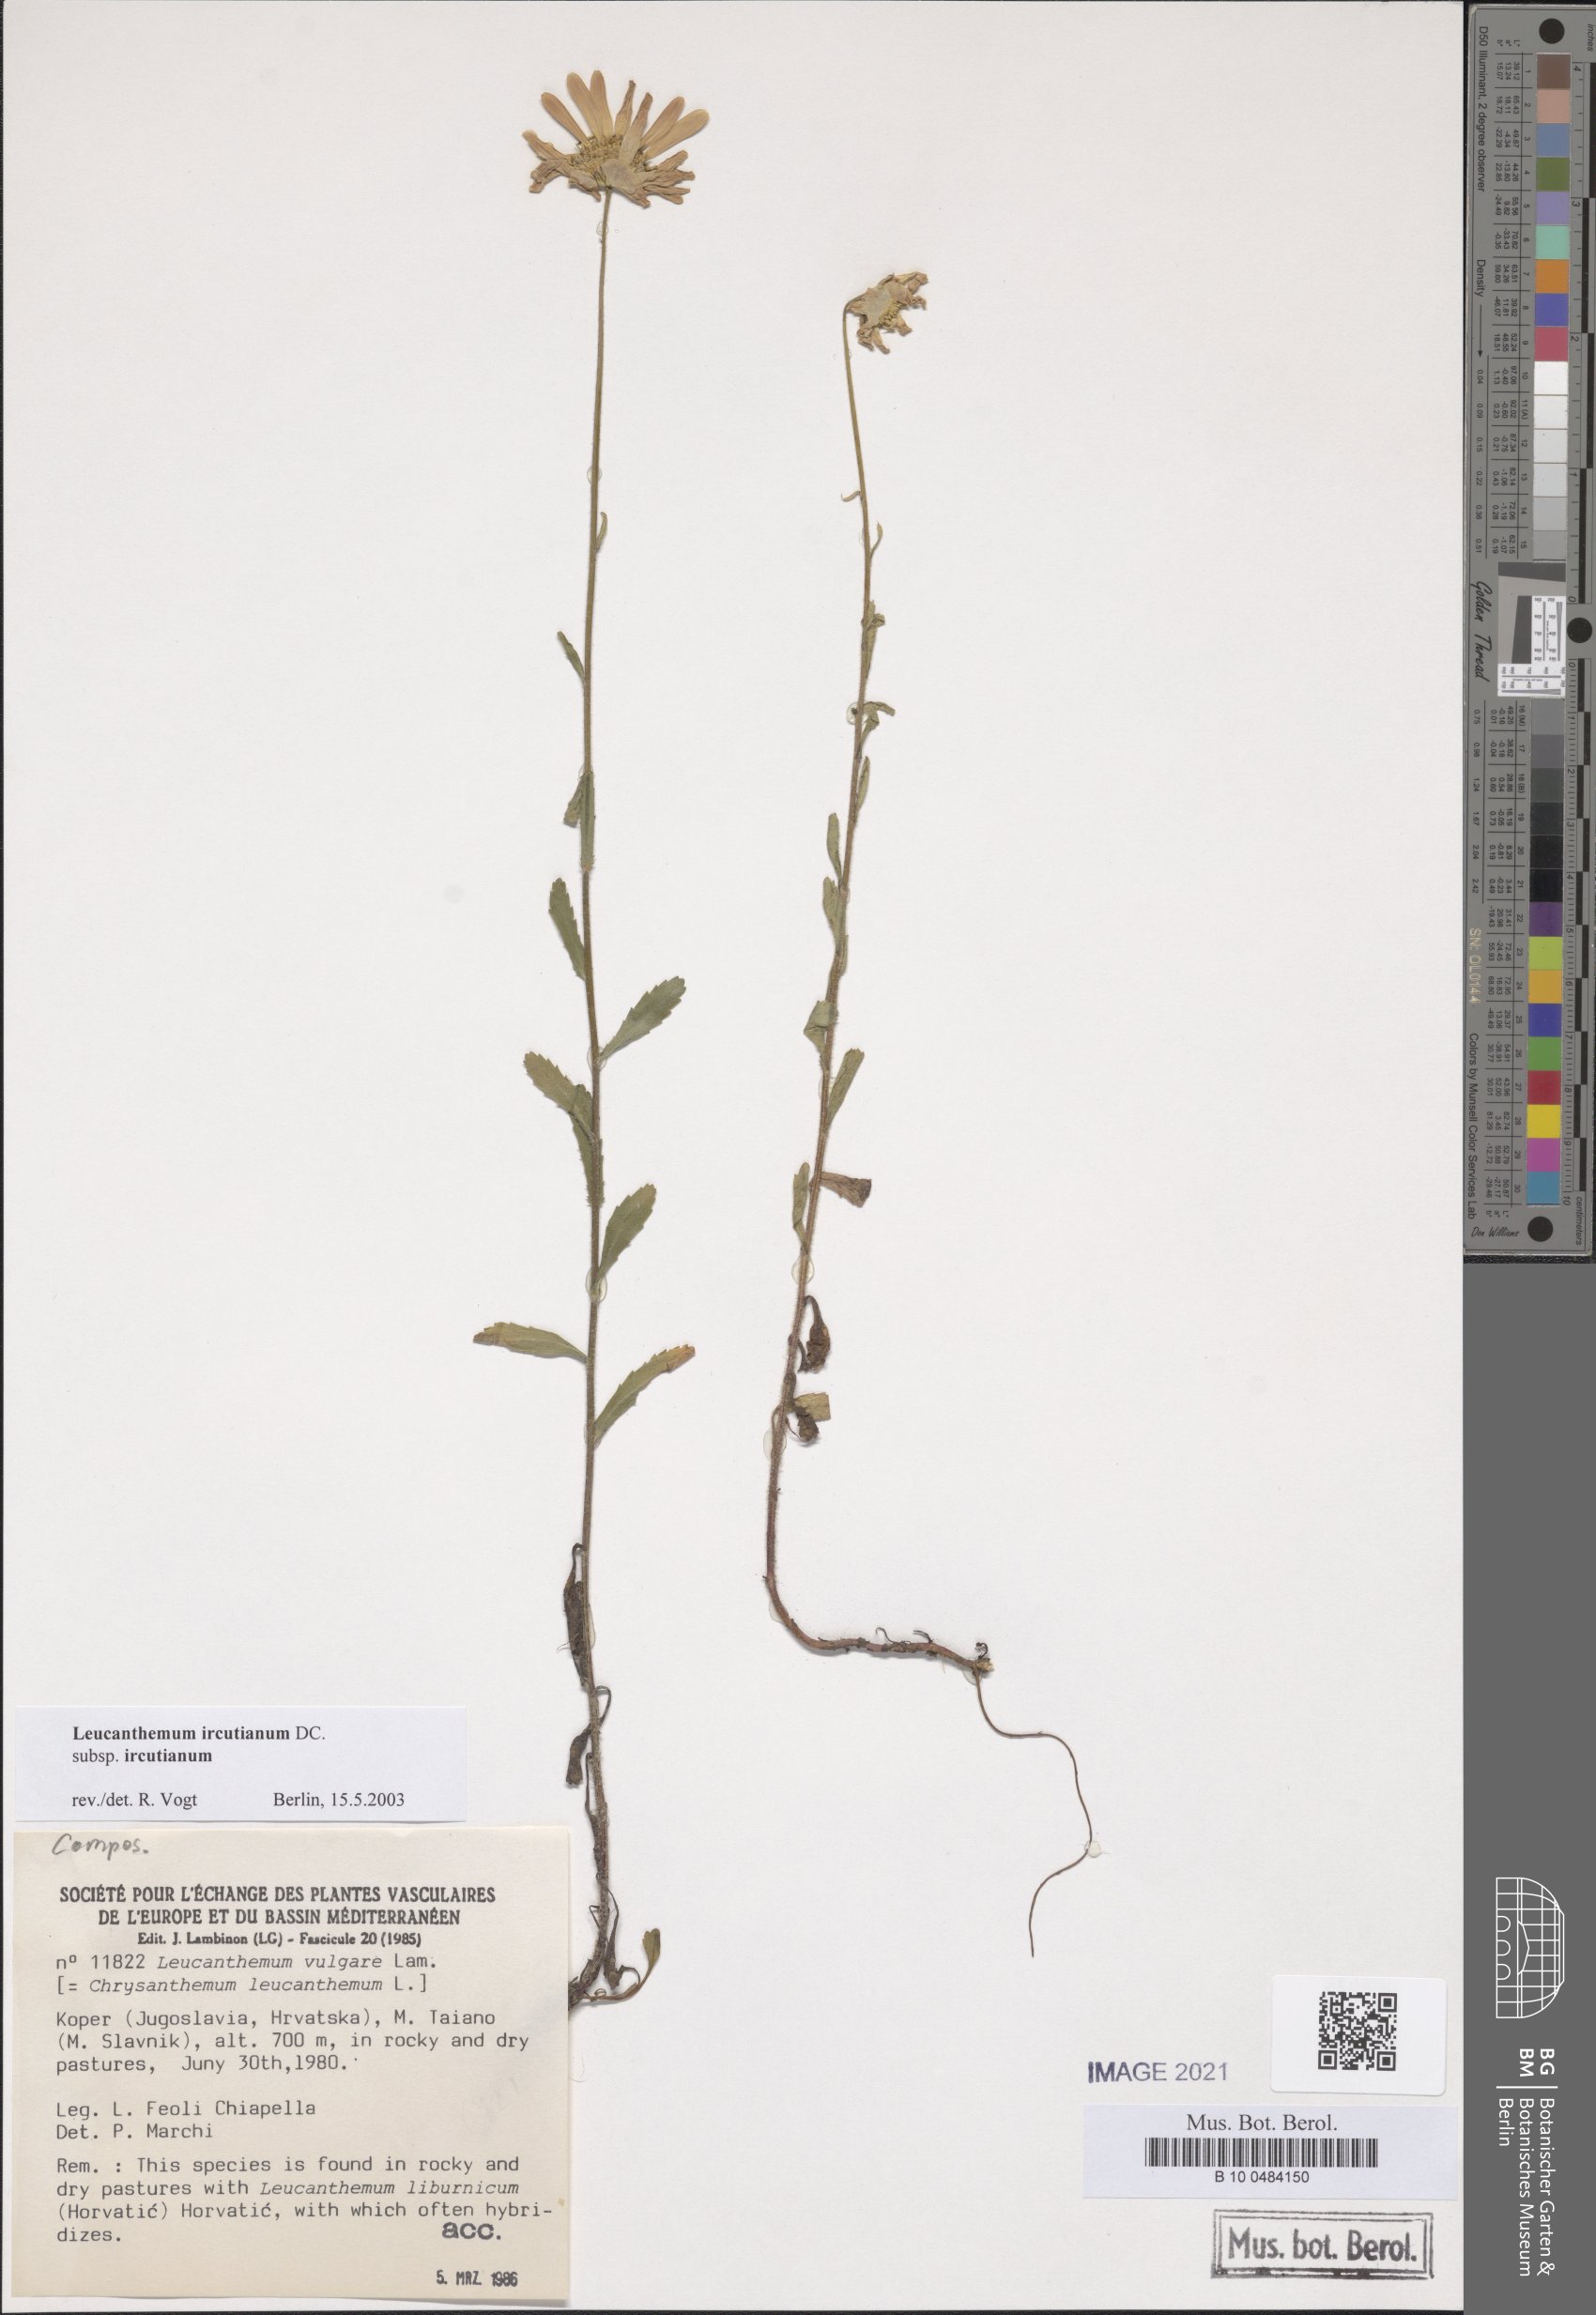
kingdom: Plantae
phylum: Tracheophyta
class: Magnoliopsida
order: Asterales
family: Asteraceae
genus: Leucanthemum
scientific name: Leucanthemum ircutianum
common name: Daisy
